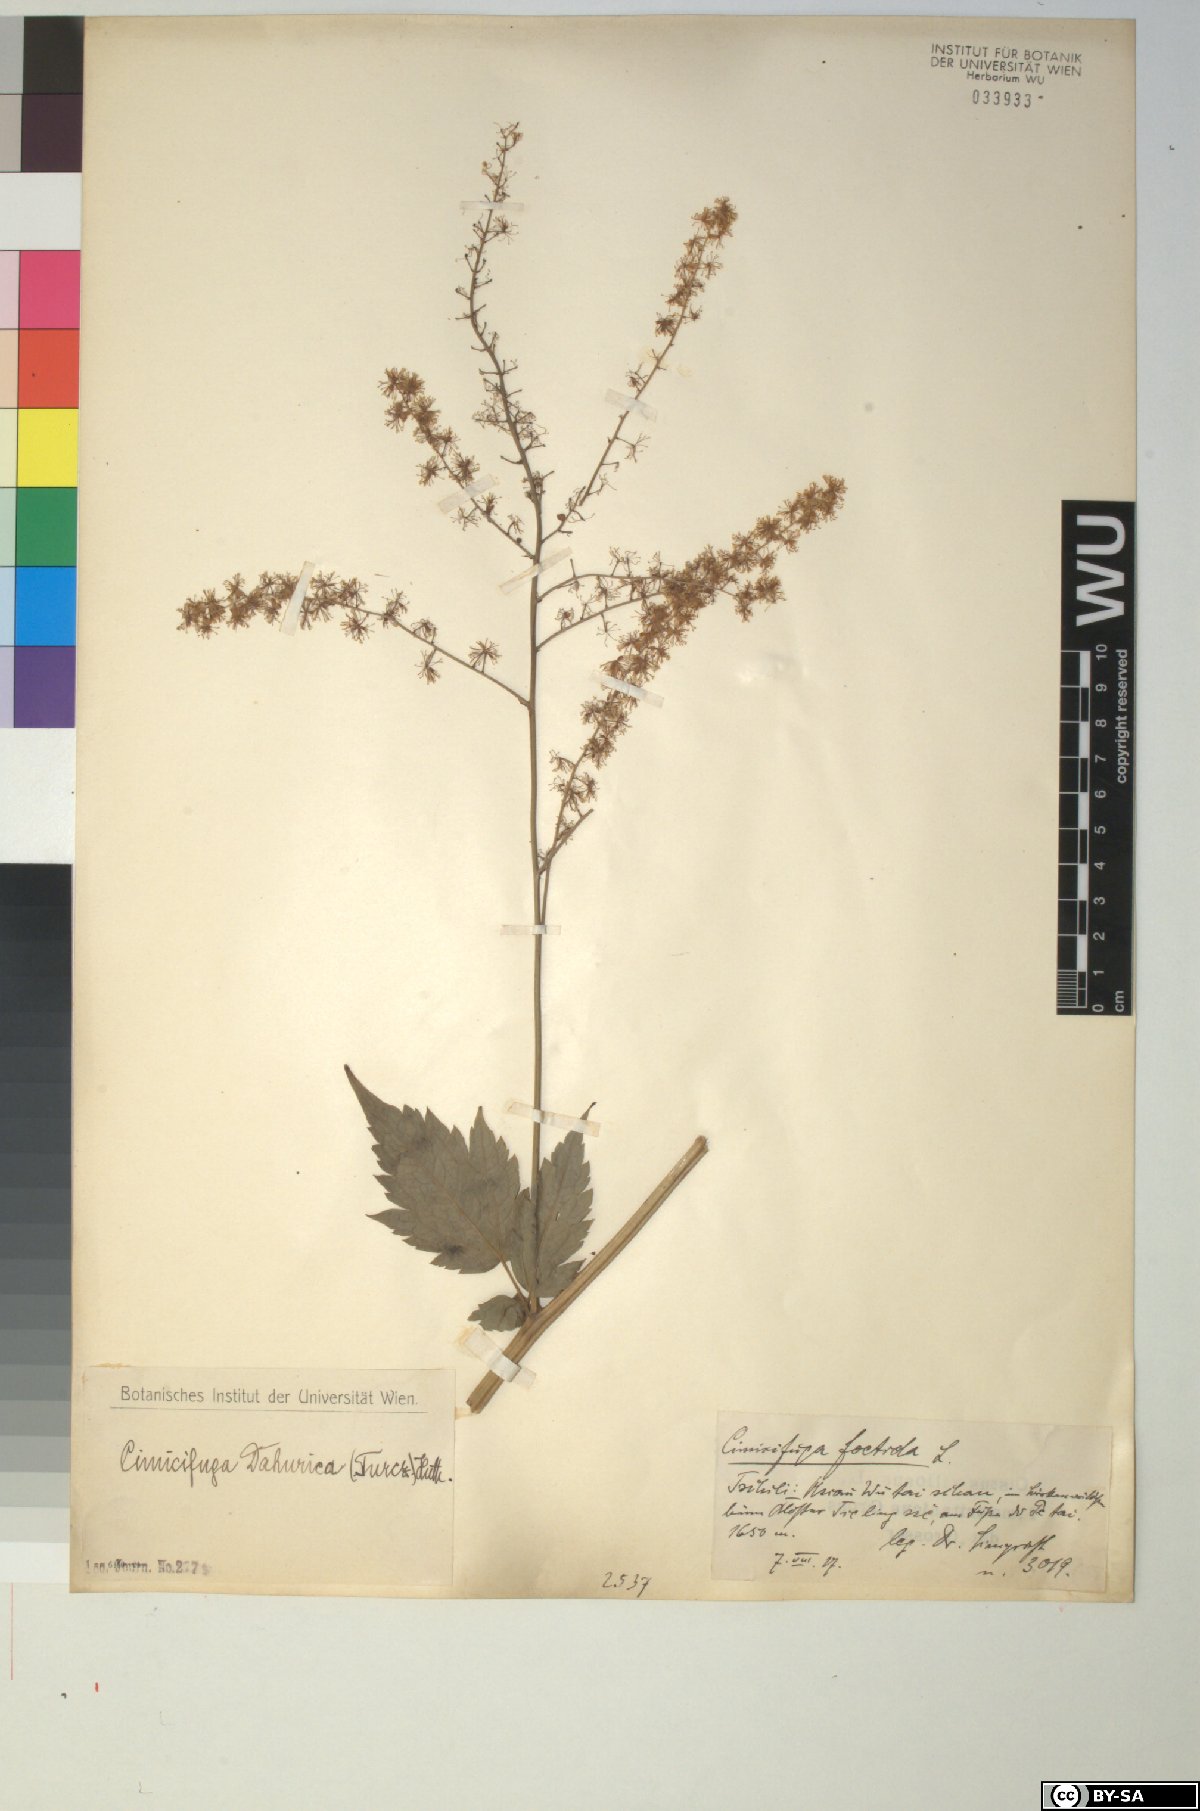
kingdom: Plantae
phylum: Tracheophyta
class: Magnoliopsida
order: Ranunculales
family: Ranunculaceae
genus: Actaea
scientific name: Actaea dahurica
